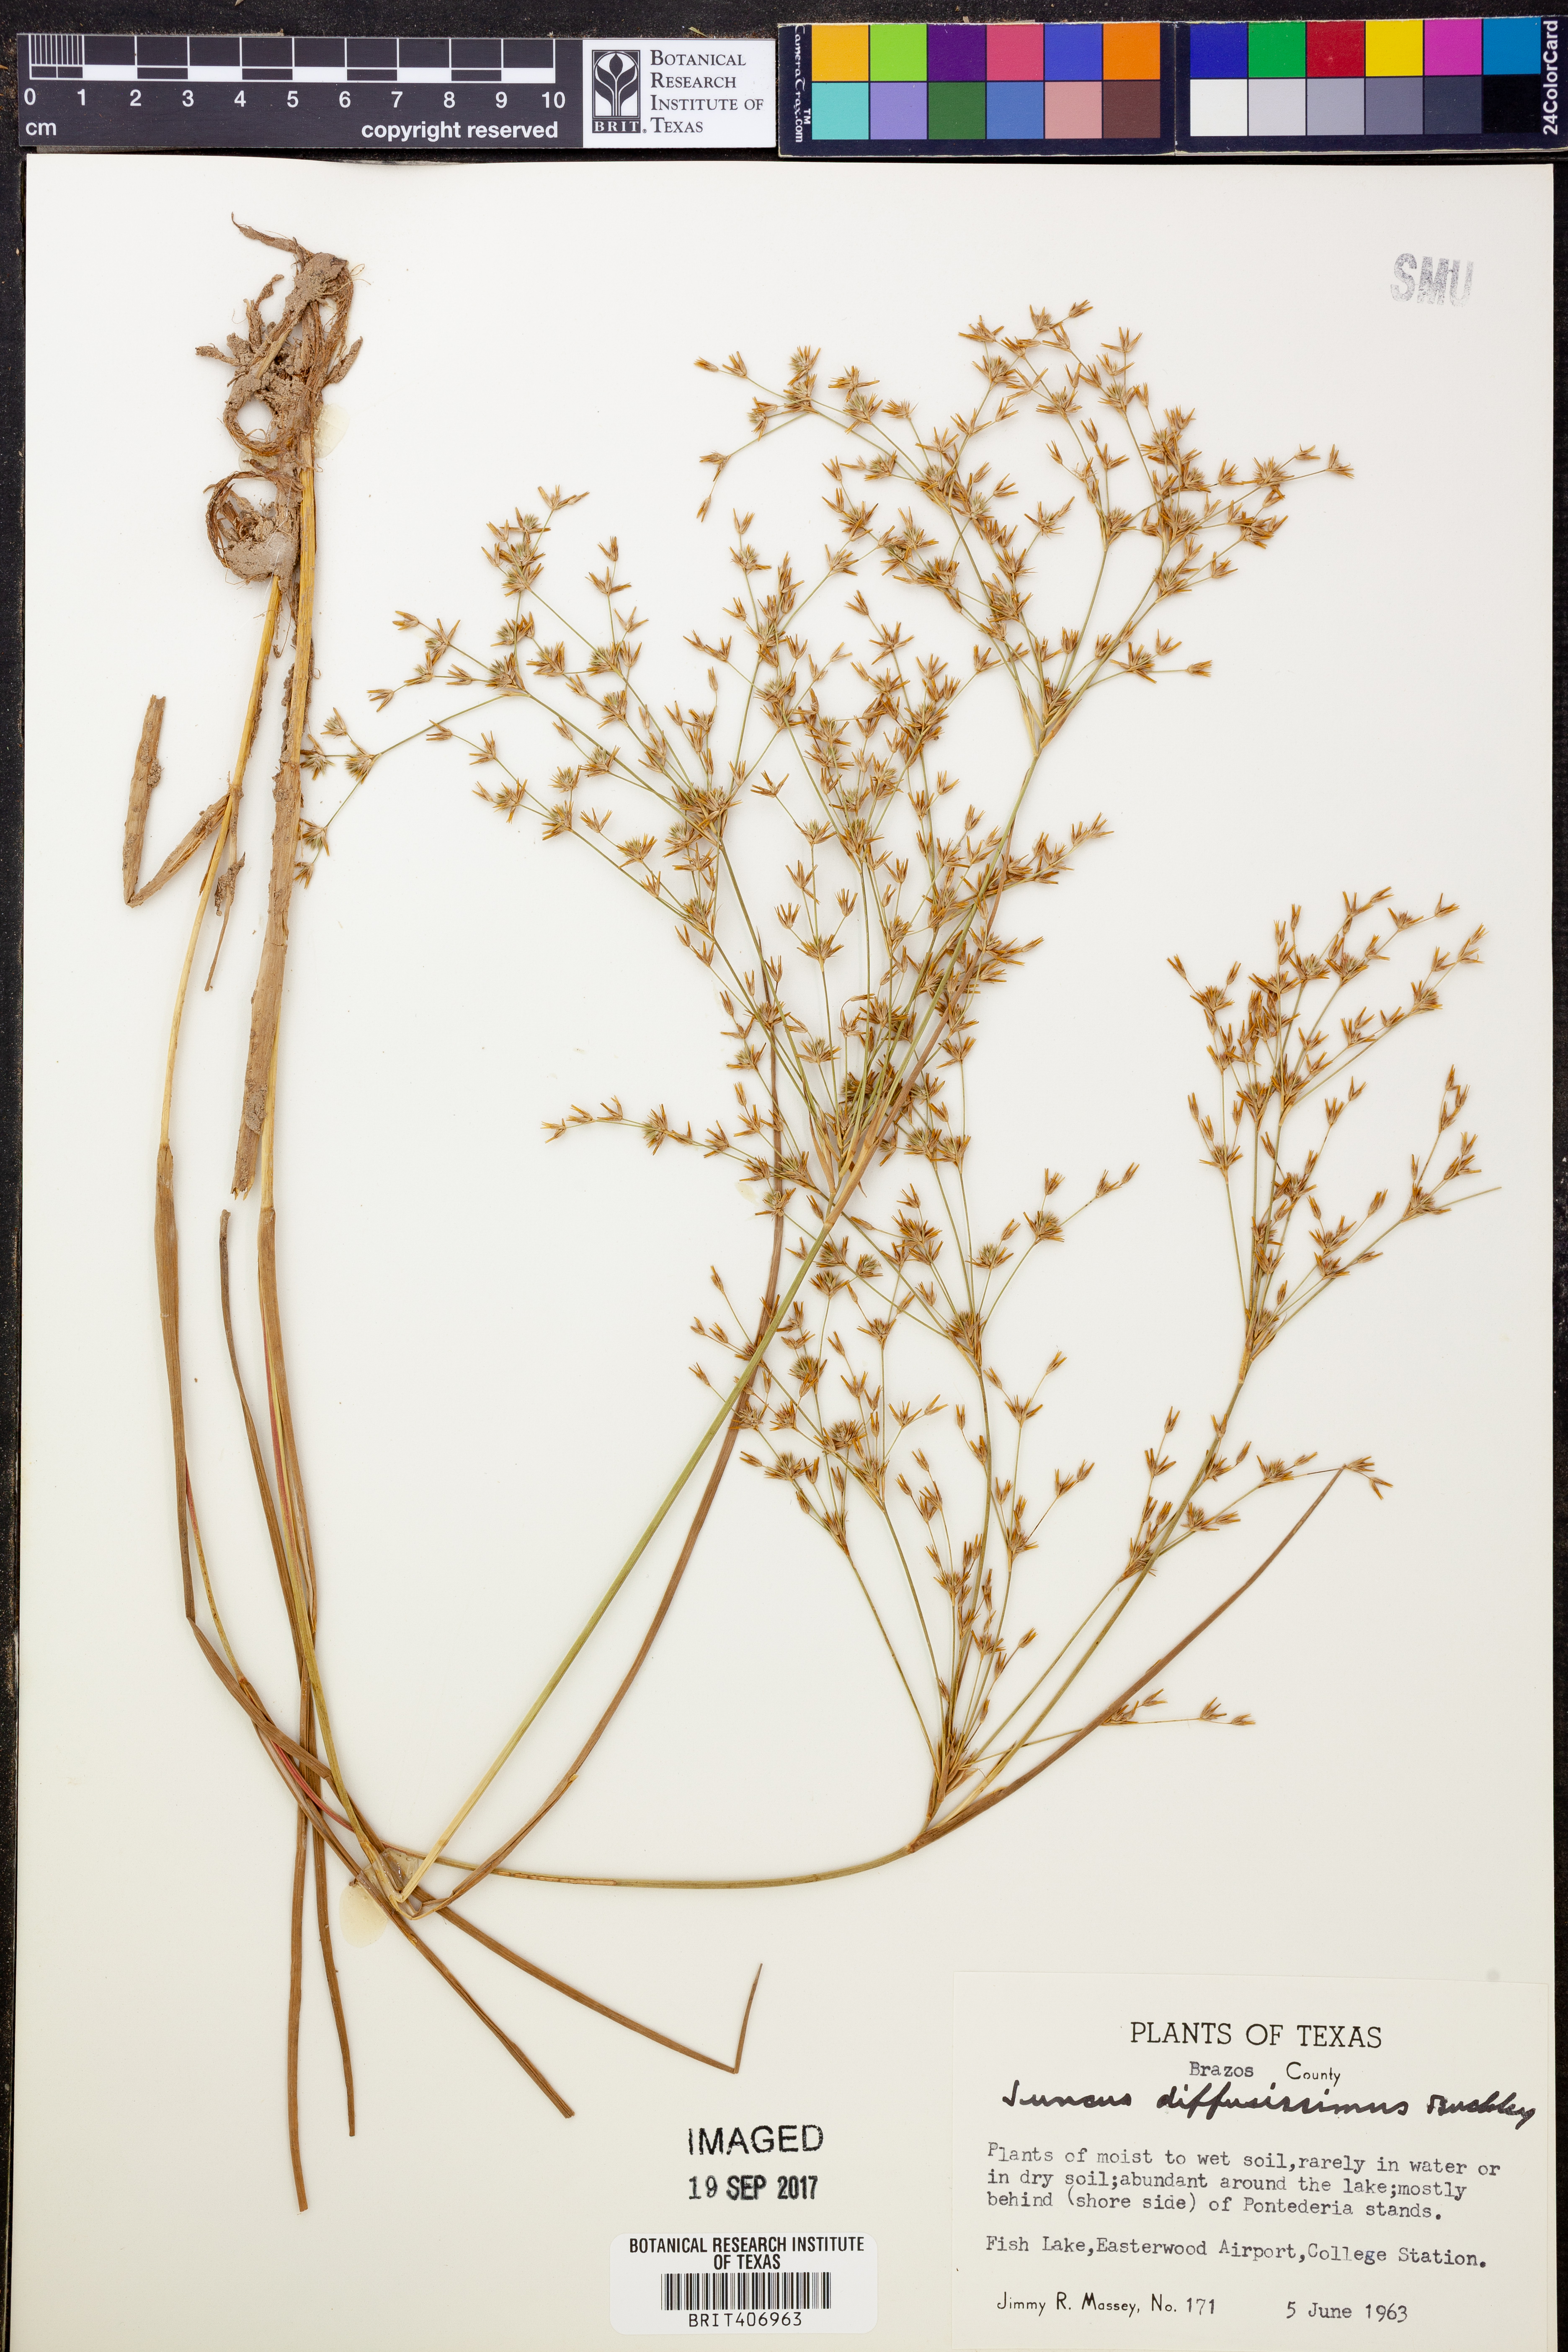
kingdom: Plantae
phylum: Tracheophyta
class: Liliopsida
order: Poales
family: Juncaceae
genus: Juncus
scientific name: Juncus diffusissimus
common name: Slimpod rush
